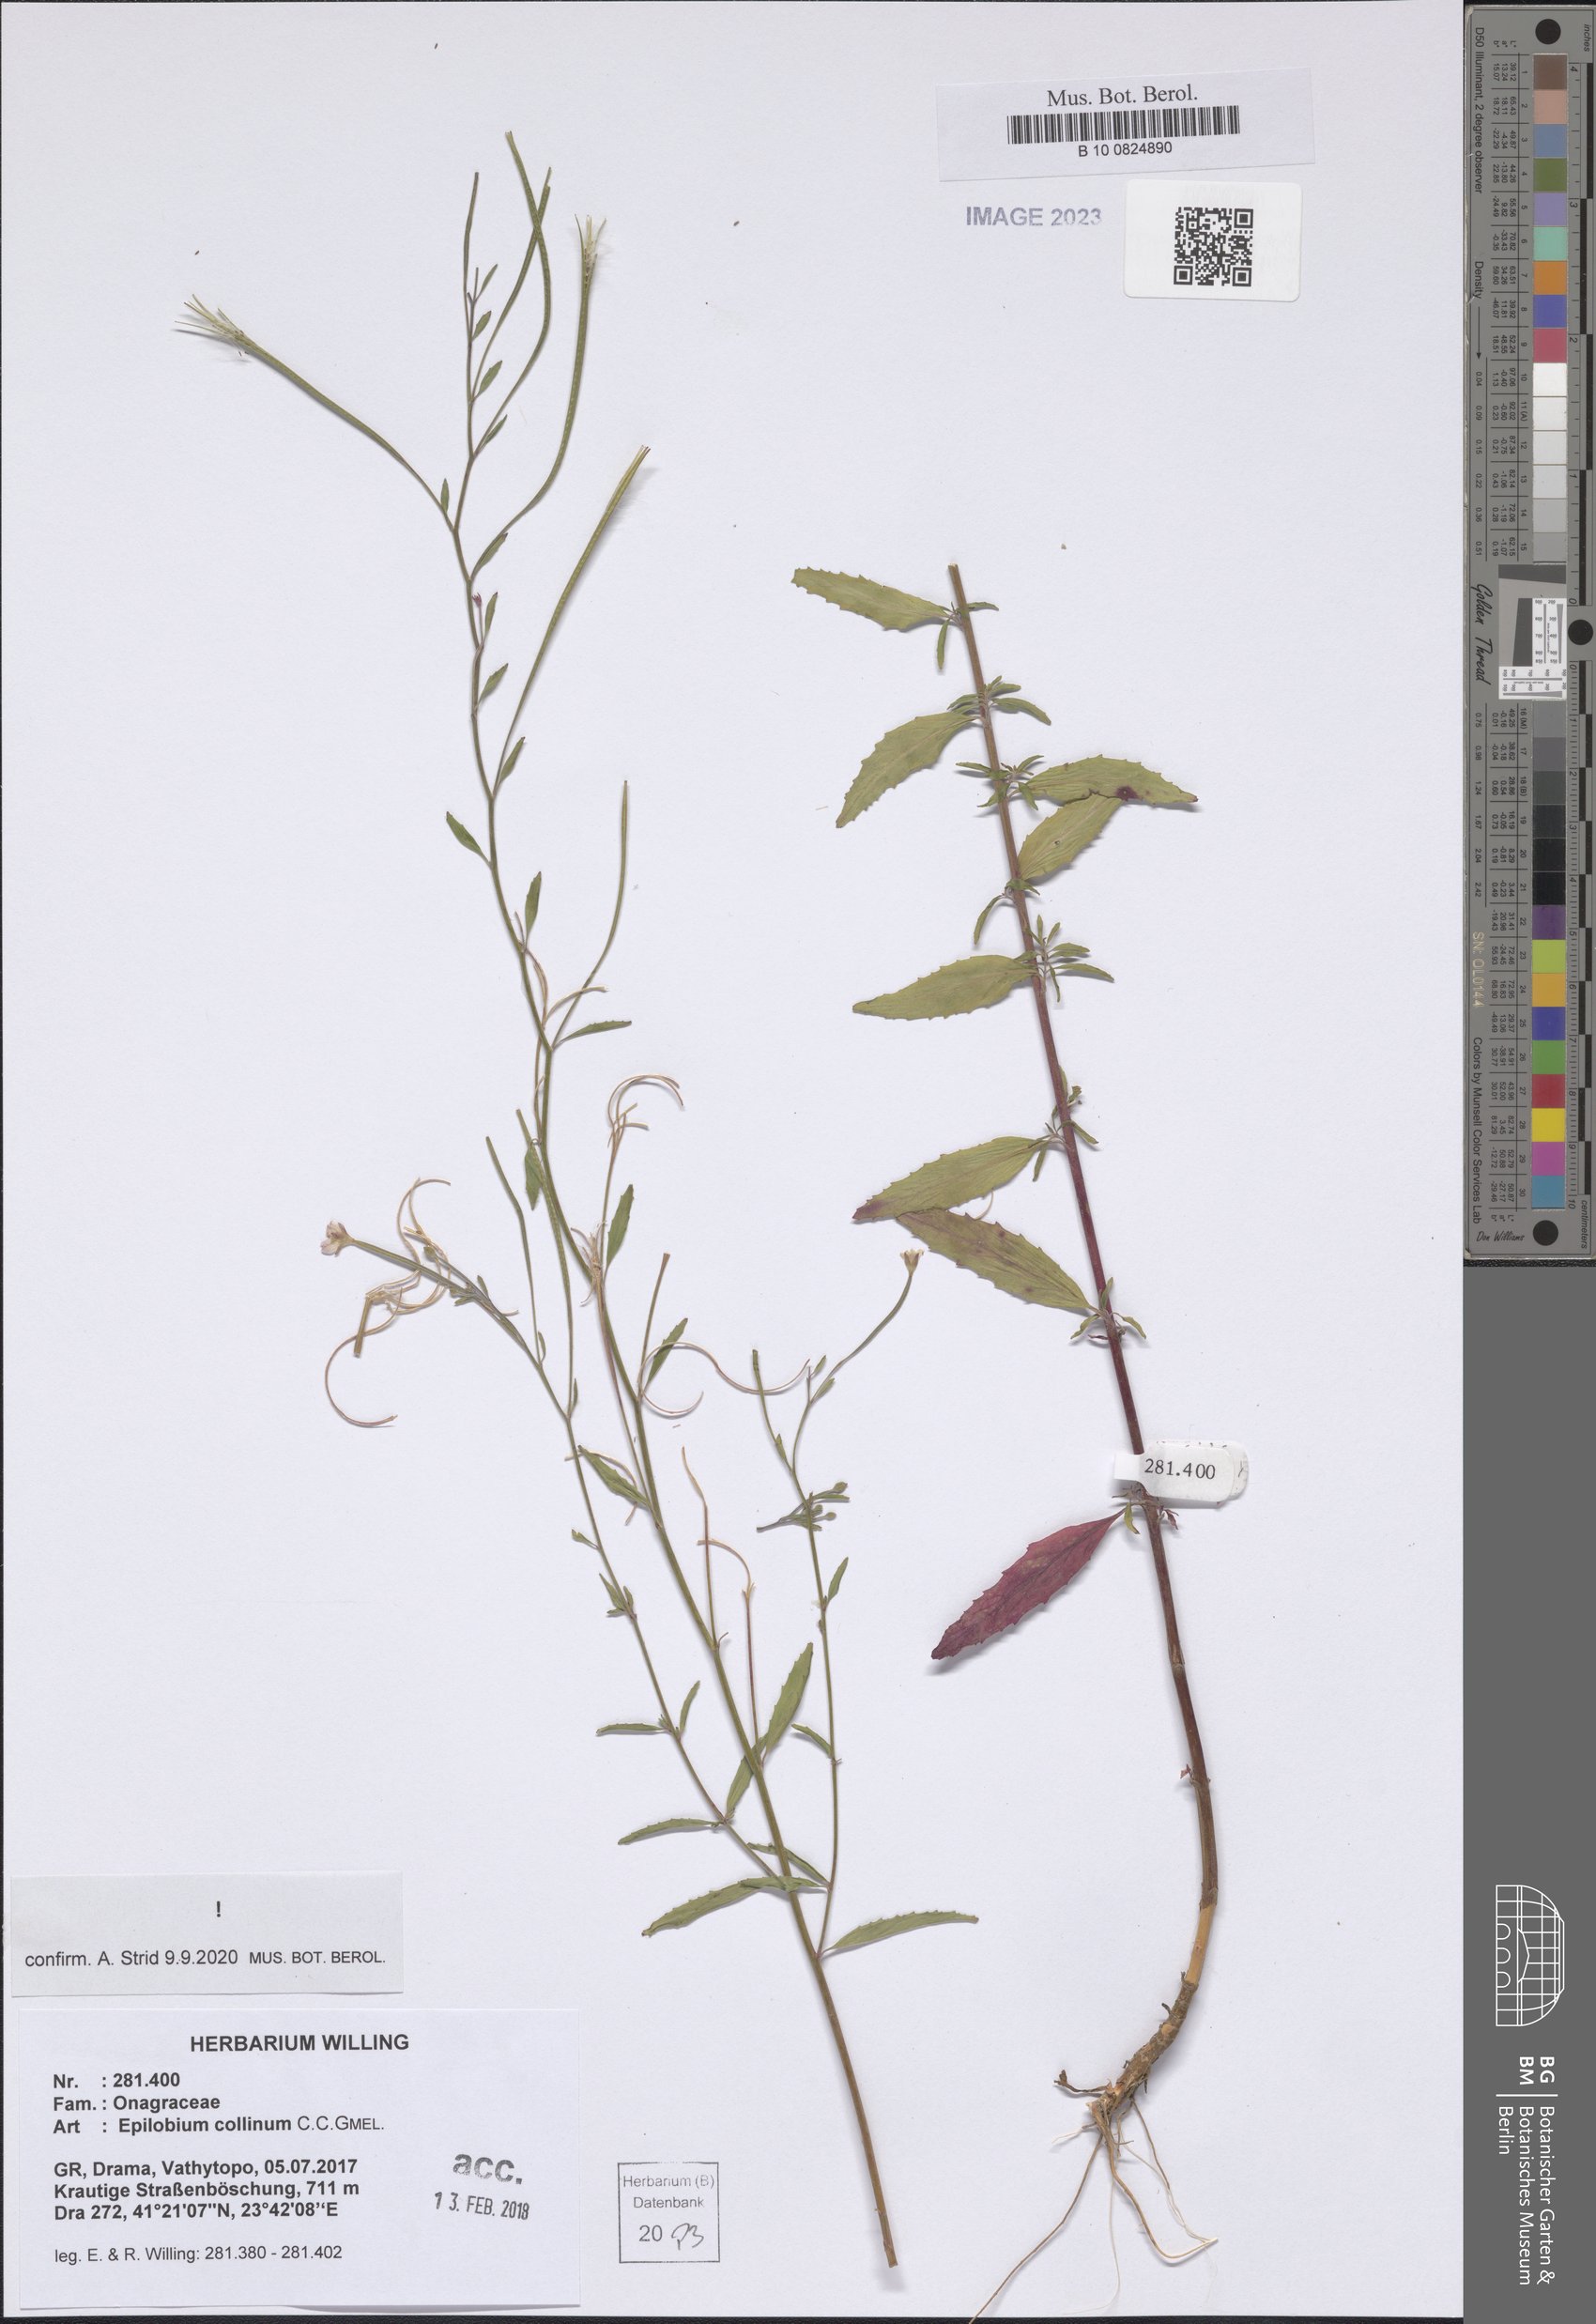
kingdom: Plantae
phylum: Tracheophyta
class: Magnoliopsida
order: Myrtales
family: Onagraceae
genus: Epilobium
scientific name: Epilobium collinum
